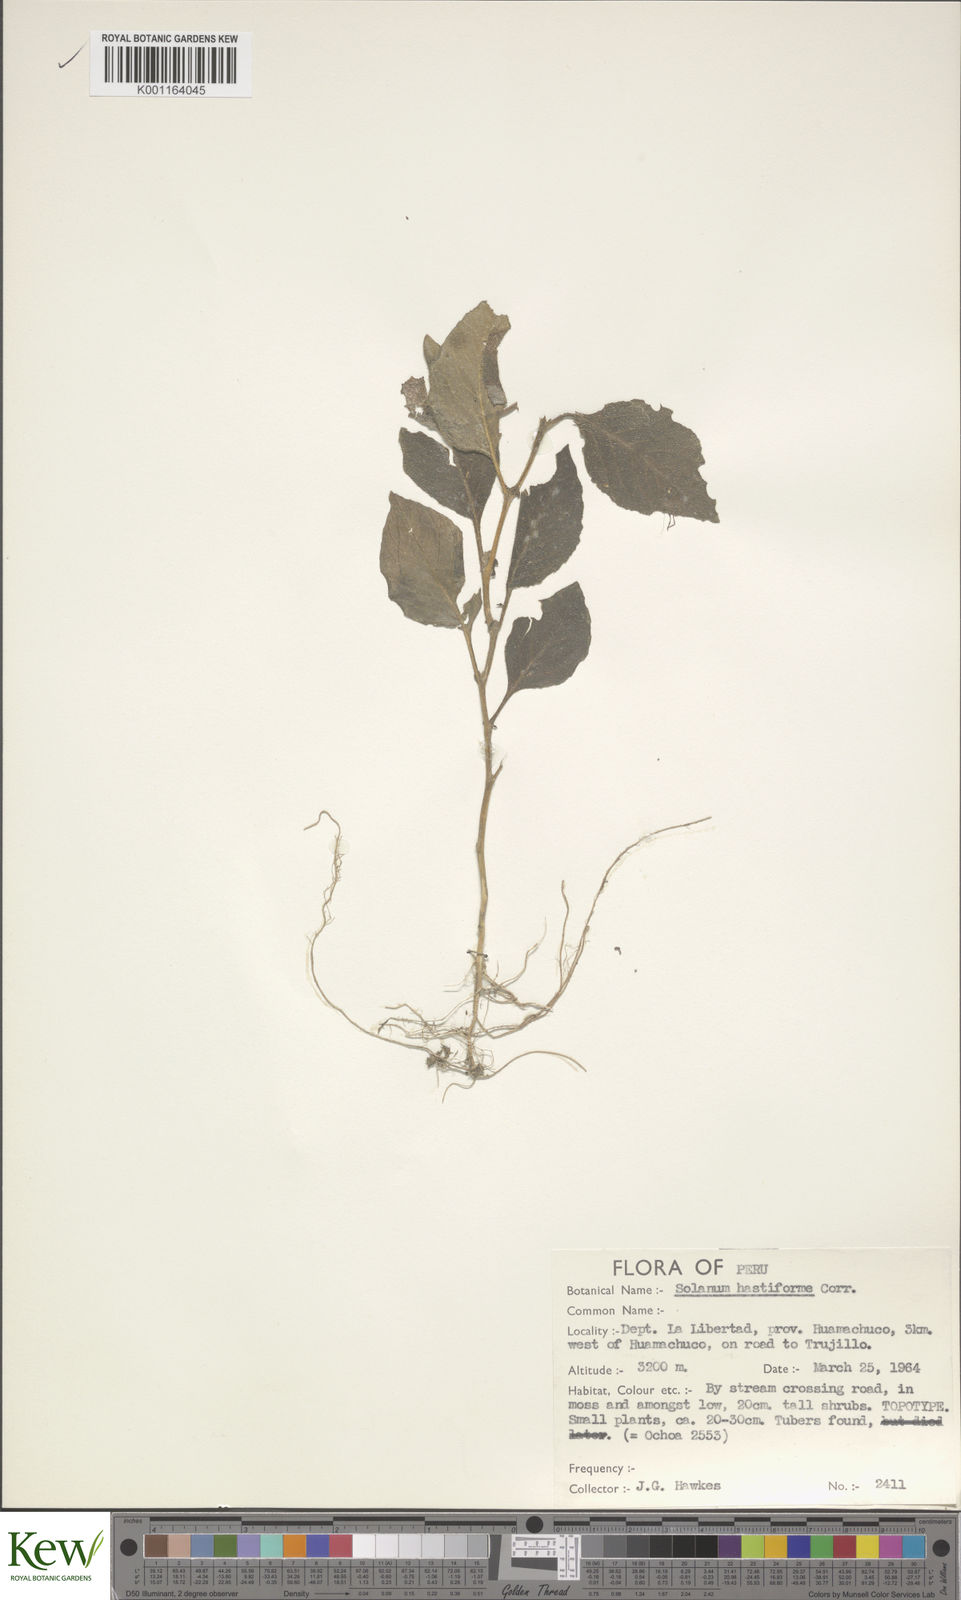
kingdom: Plantae
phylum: Tracheophyta
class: Magnoliopsida
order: Solanales
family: Solanaceae
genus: Solanum
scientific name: Solanum hastiforme
